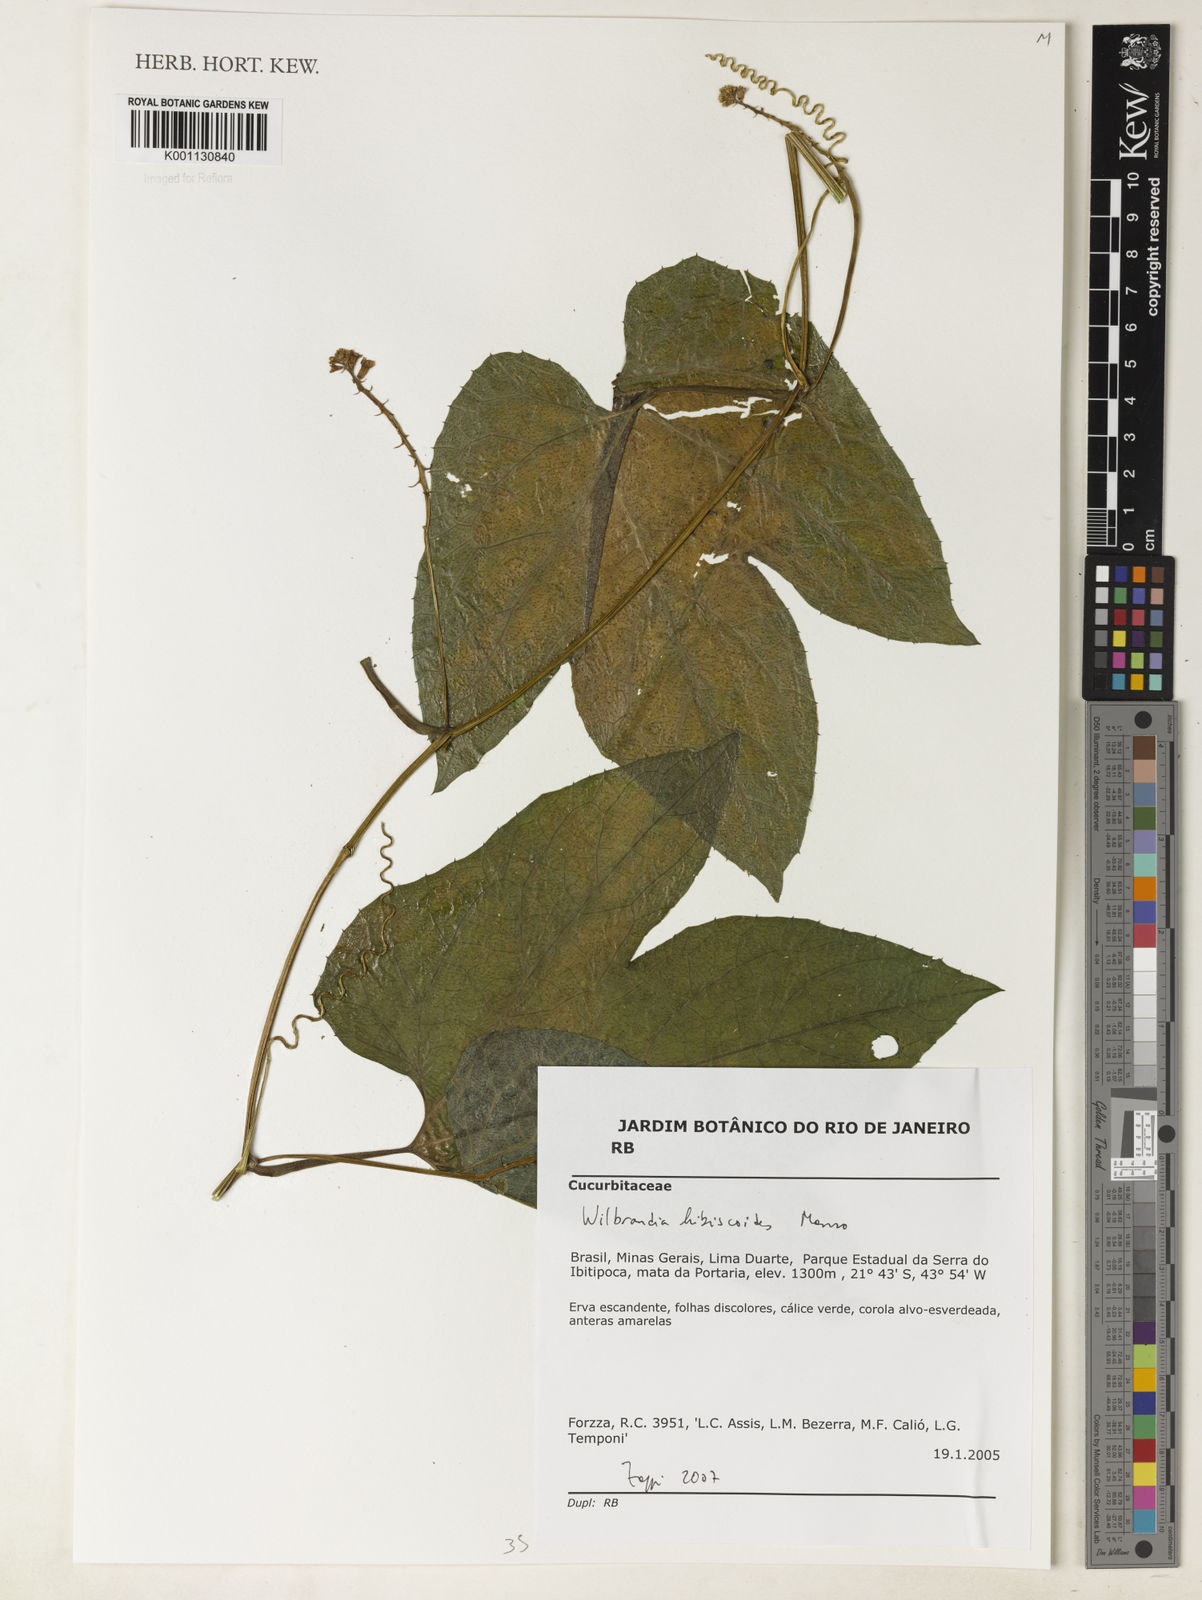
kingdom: Plantae
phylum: Tracheophyta
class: Magnoliopsida
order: Cucurbitales
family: Cucurbitaceae
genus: Wilbrandia
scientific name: Wilbrandia hibiscoides
